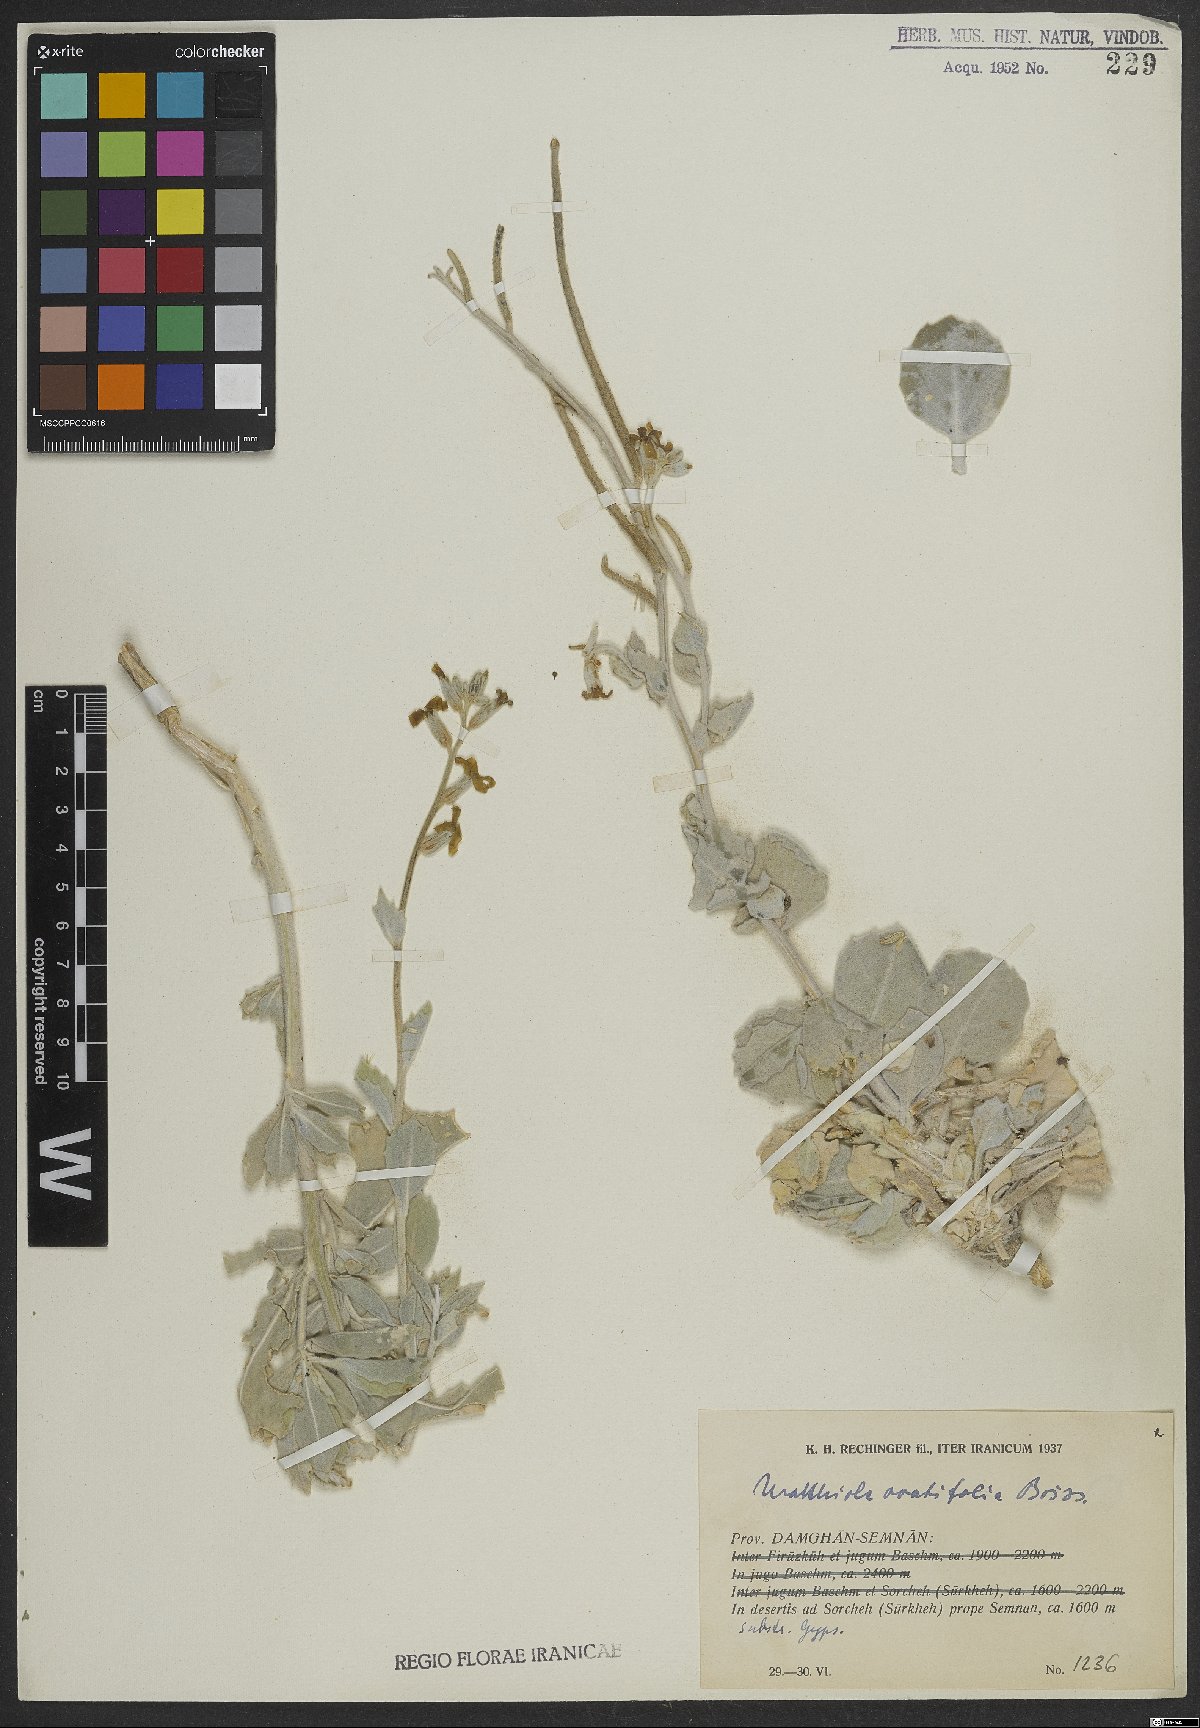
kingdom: Plantae
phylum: Tracheophyta
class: Magnoliopsida
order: Brassicales
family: Brassicaceae
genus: Matthiola
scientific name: Matthiola ovatifolia
